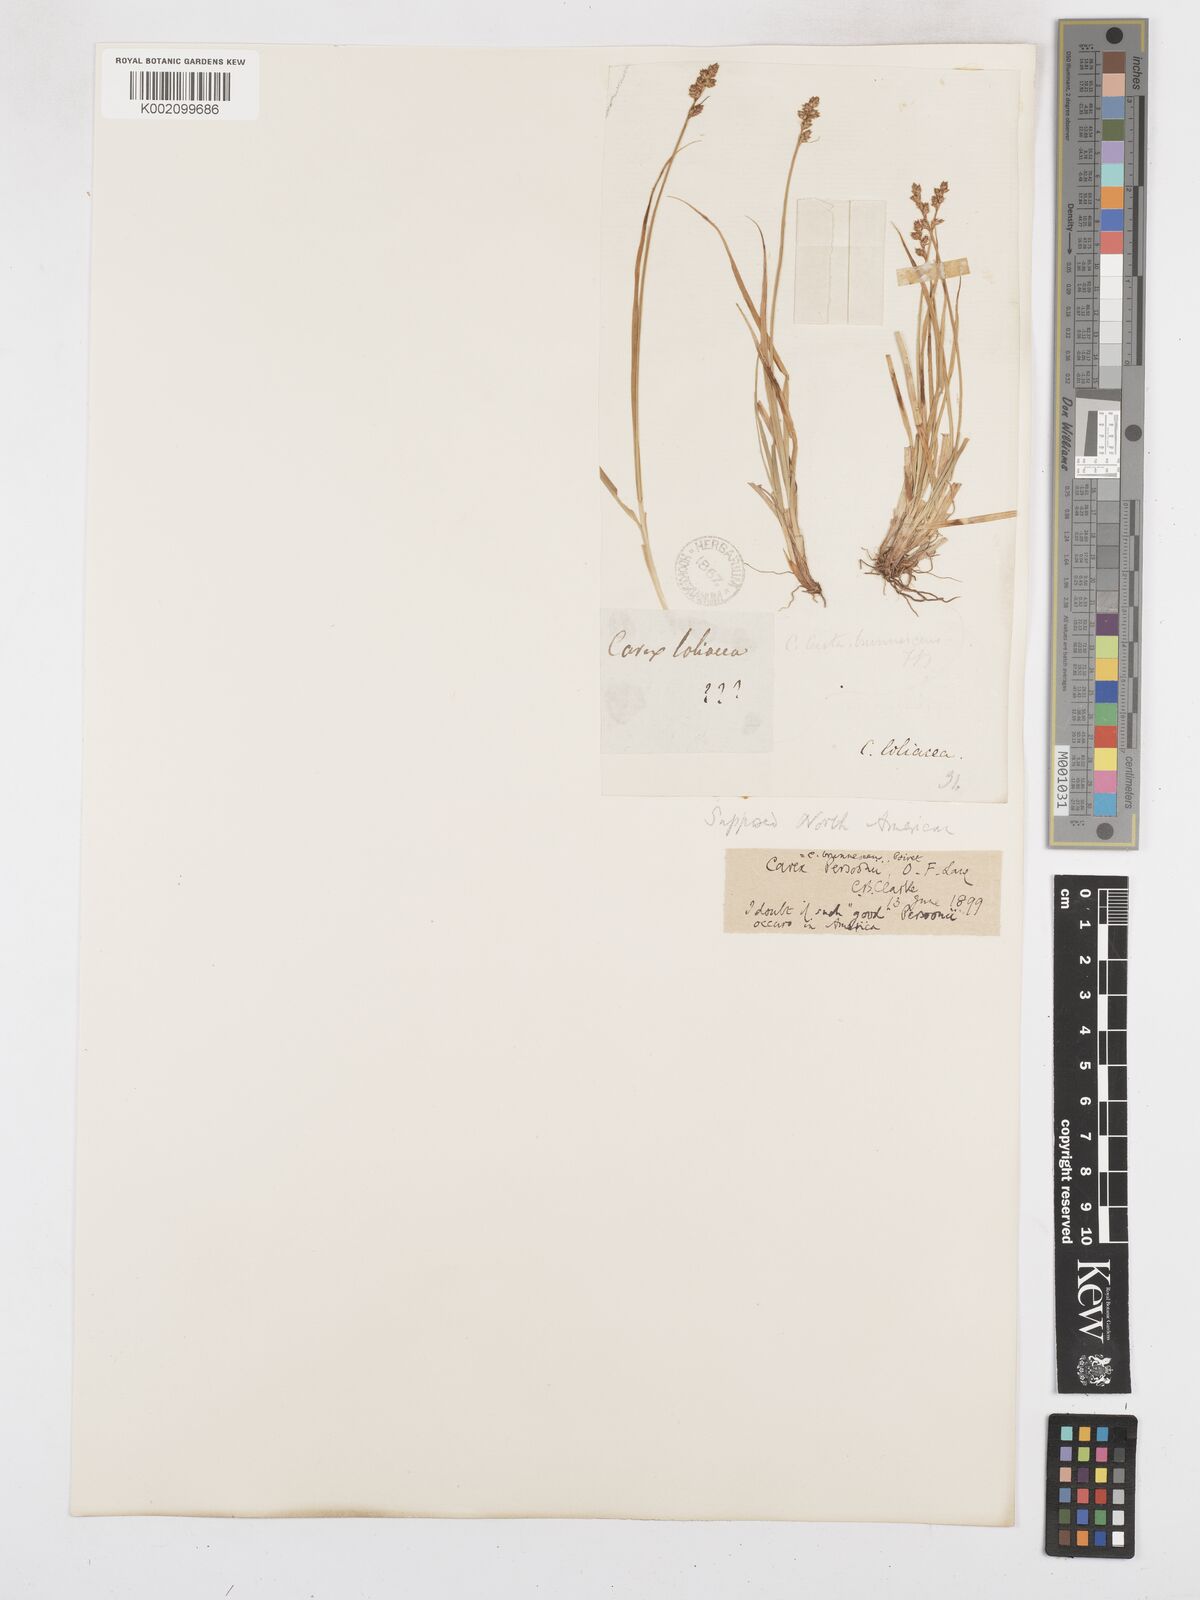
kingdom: Plantae
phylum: Tracheophyta
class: Liliopsida
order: Poales
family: Cyperaceae
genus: Carex
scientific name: Carex brunnescens
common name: Brown sedge
